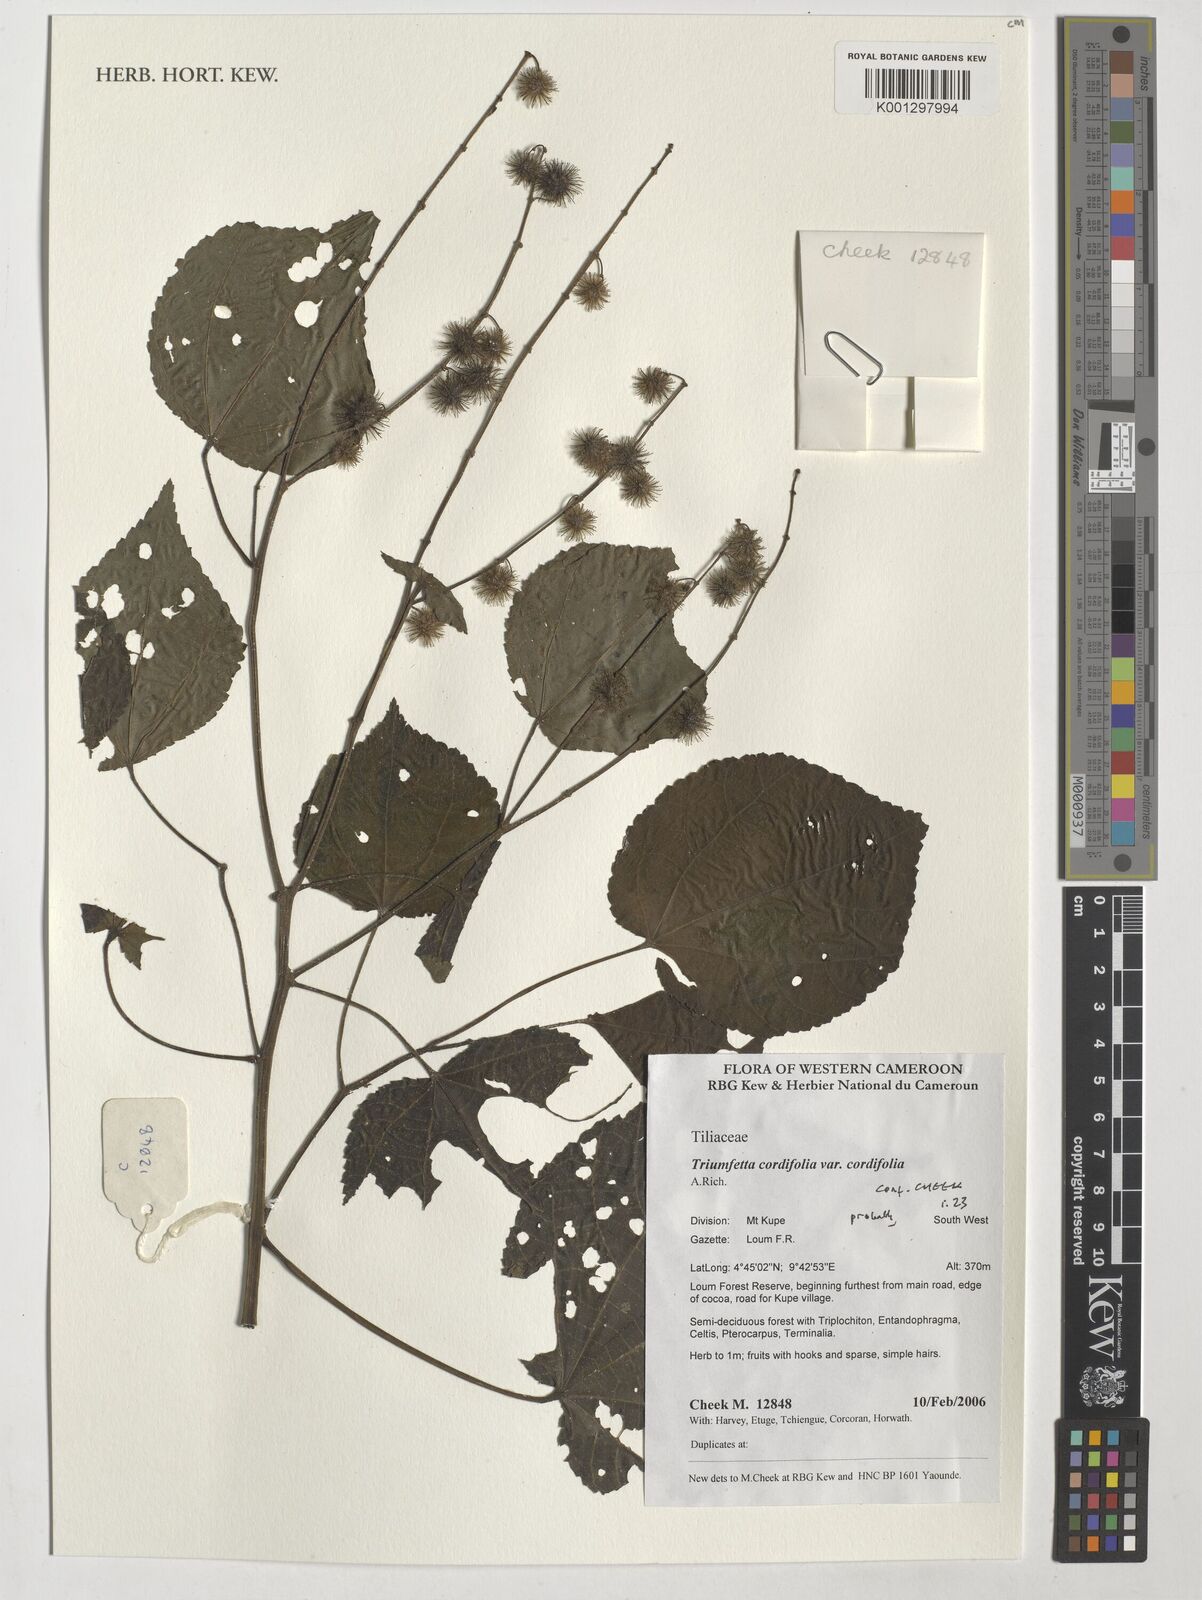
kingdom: Plantae
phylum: Tracheophyta
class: Magnoliopsida
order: Malvales
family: Malvaceae
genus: Triumfetta
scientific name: Triumfetta cordifolia
